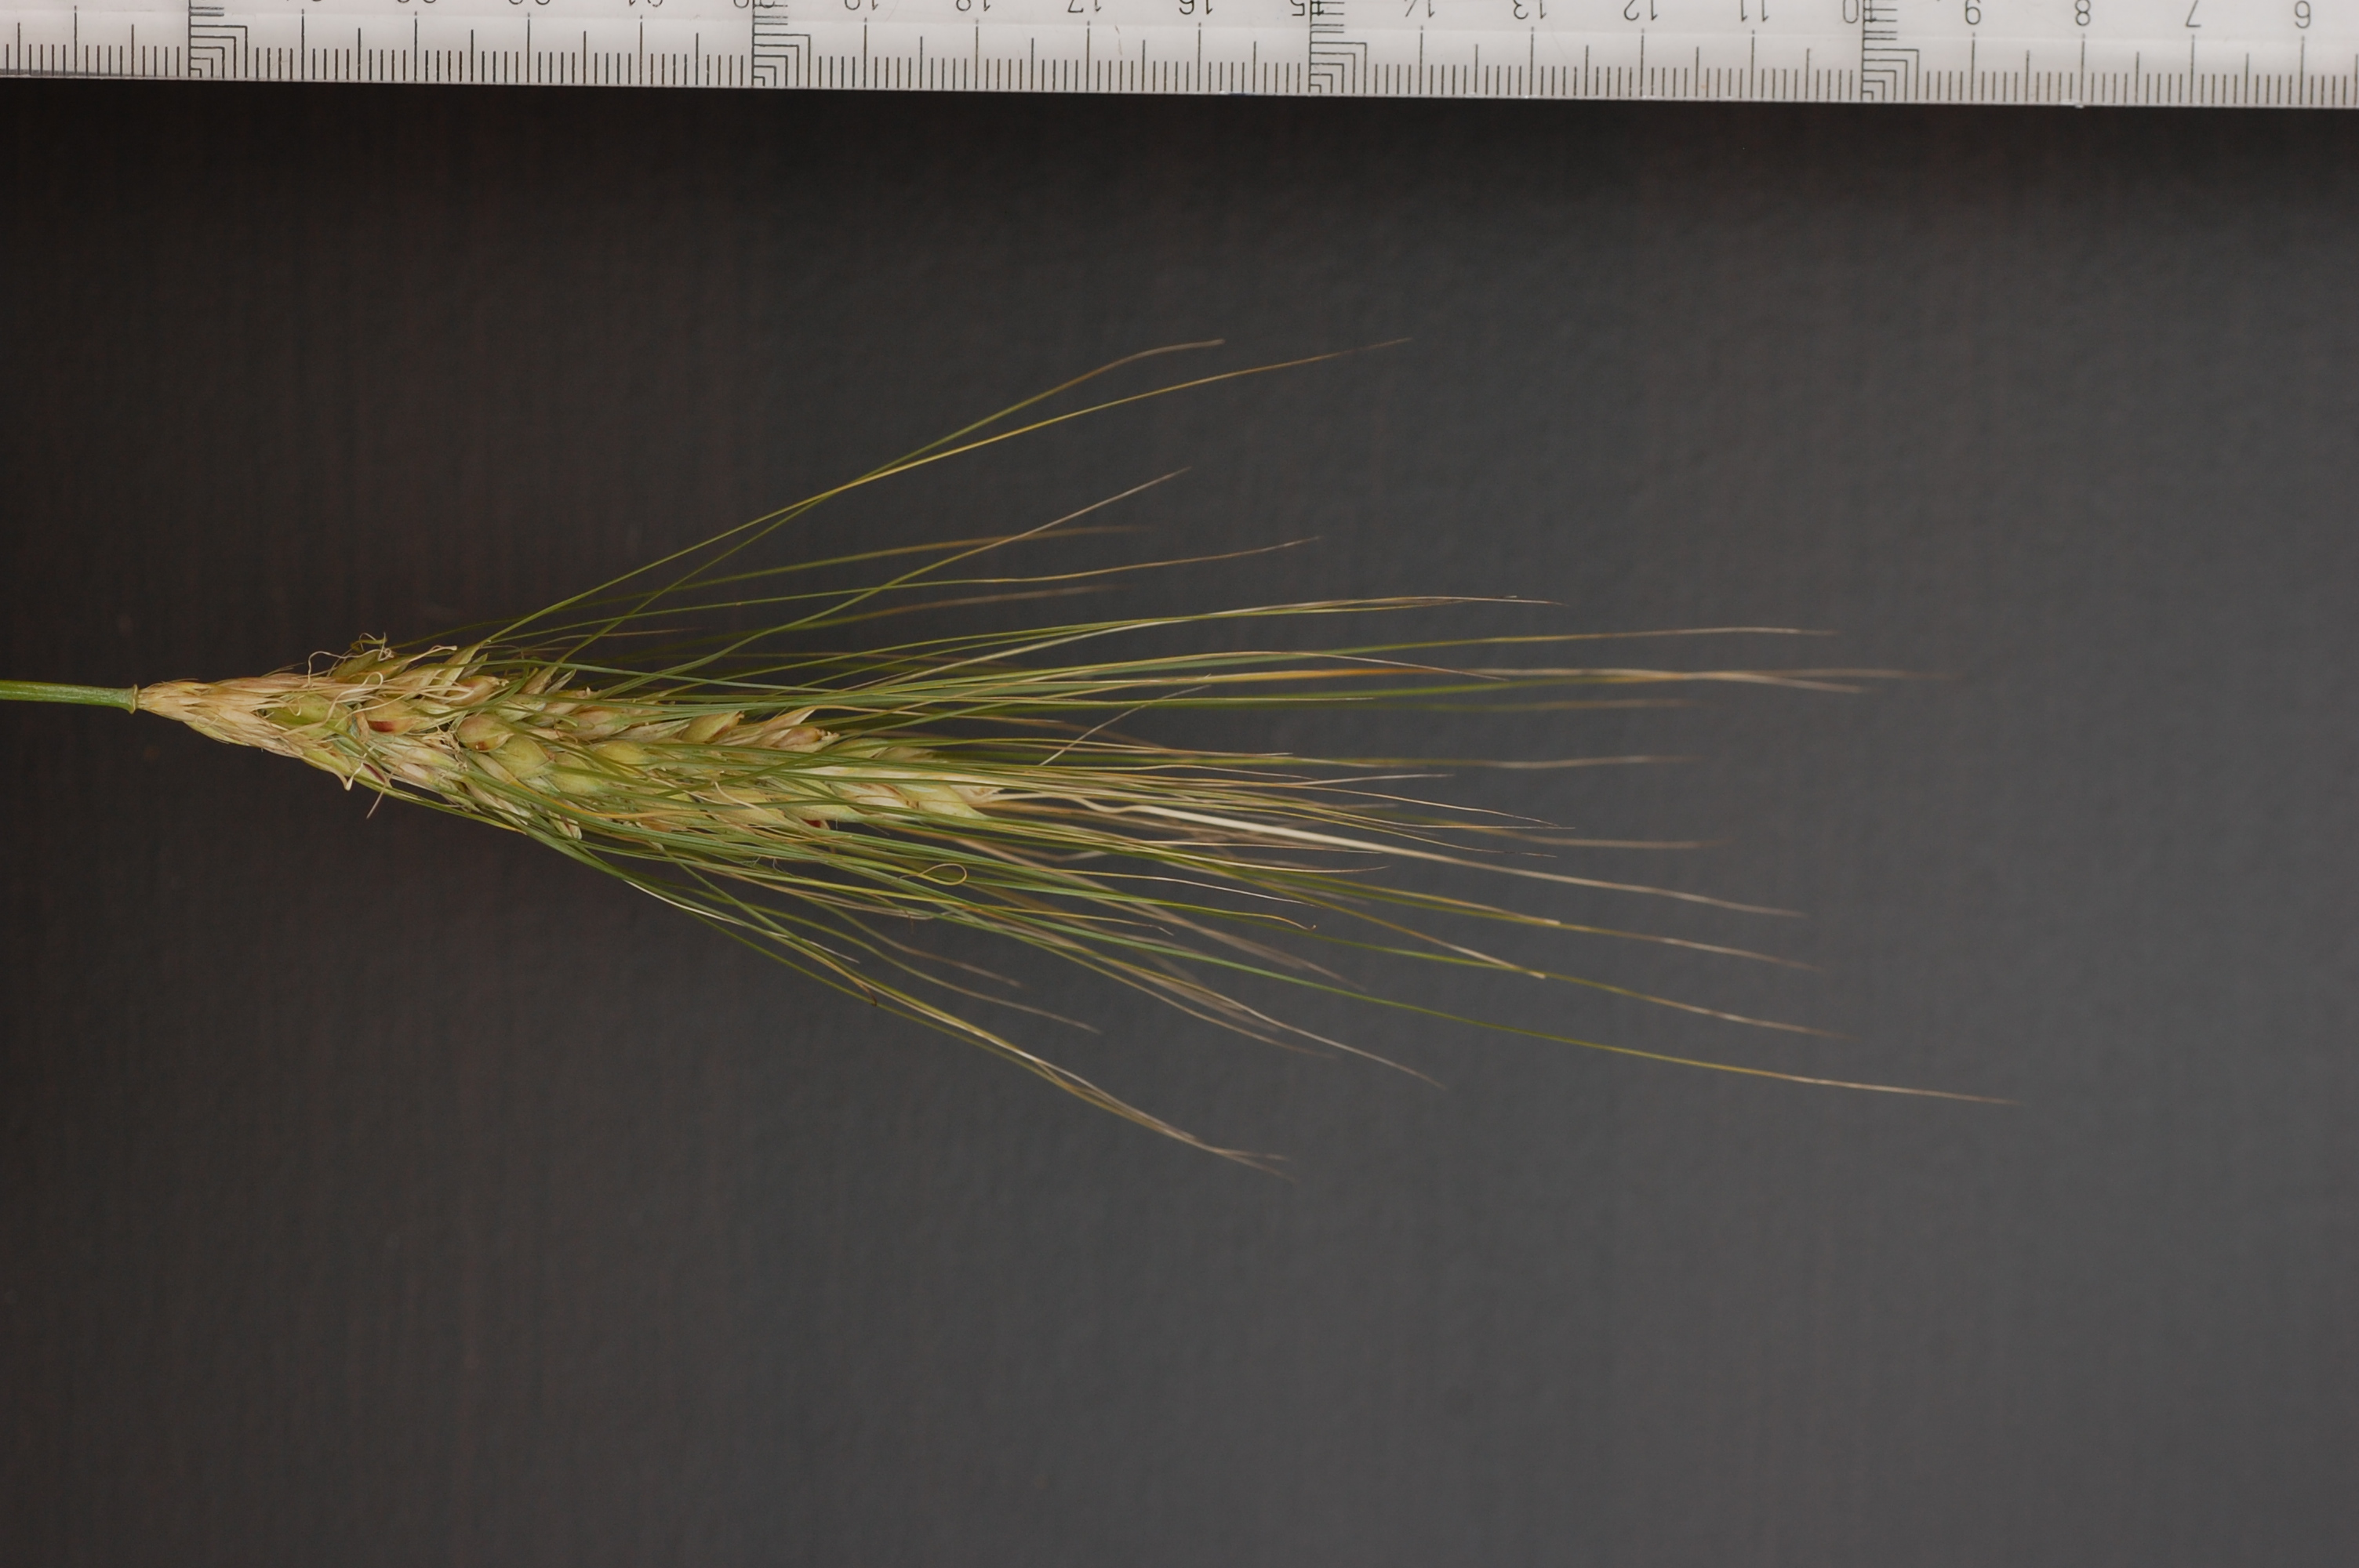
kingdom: Plantae
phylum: Tracheophyta
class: Liliopsida
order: Poales
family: Poaceae
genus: Hordeum
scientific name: Hordeum vulgare
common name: Common barley
